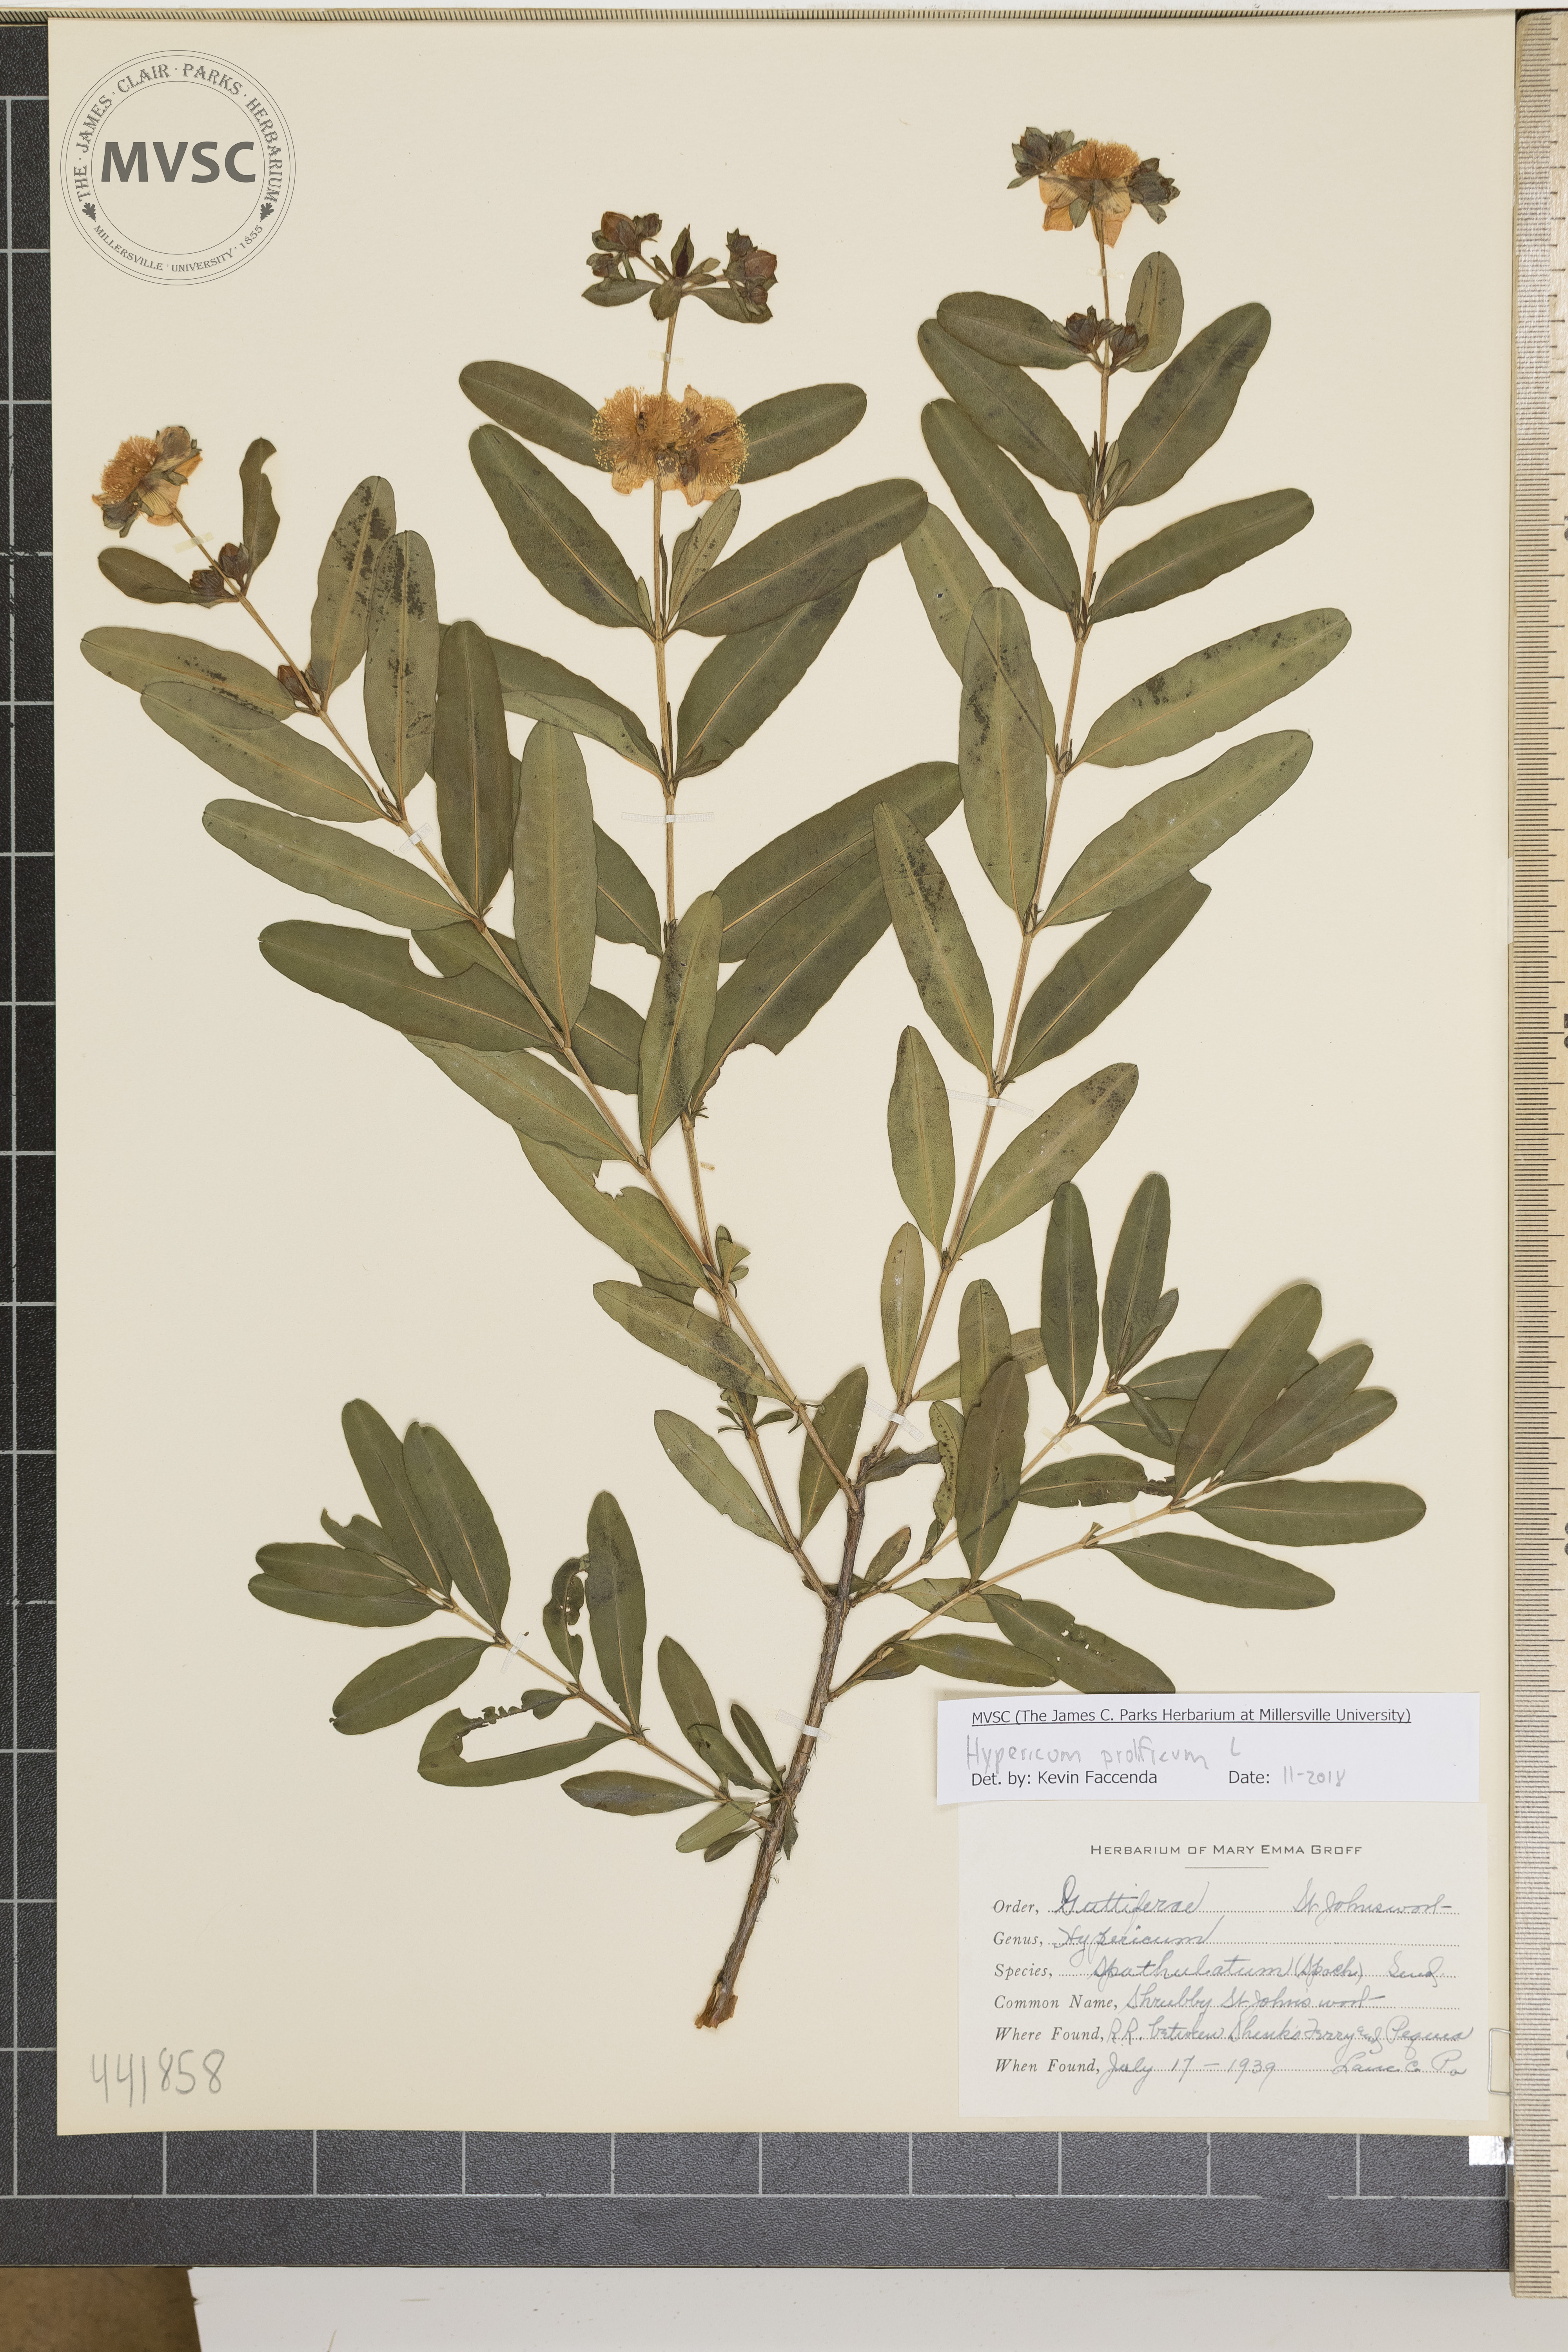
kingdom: Plantae
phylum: Tracheophyta
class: Magnoliopsida
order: Malpighiales
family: Hypericaceae
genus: Hypericum
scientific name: Hypericum prolificum
